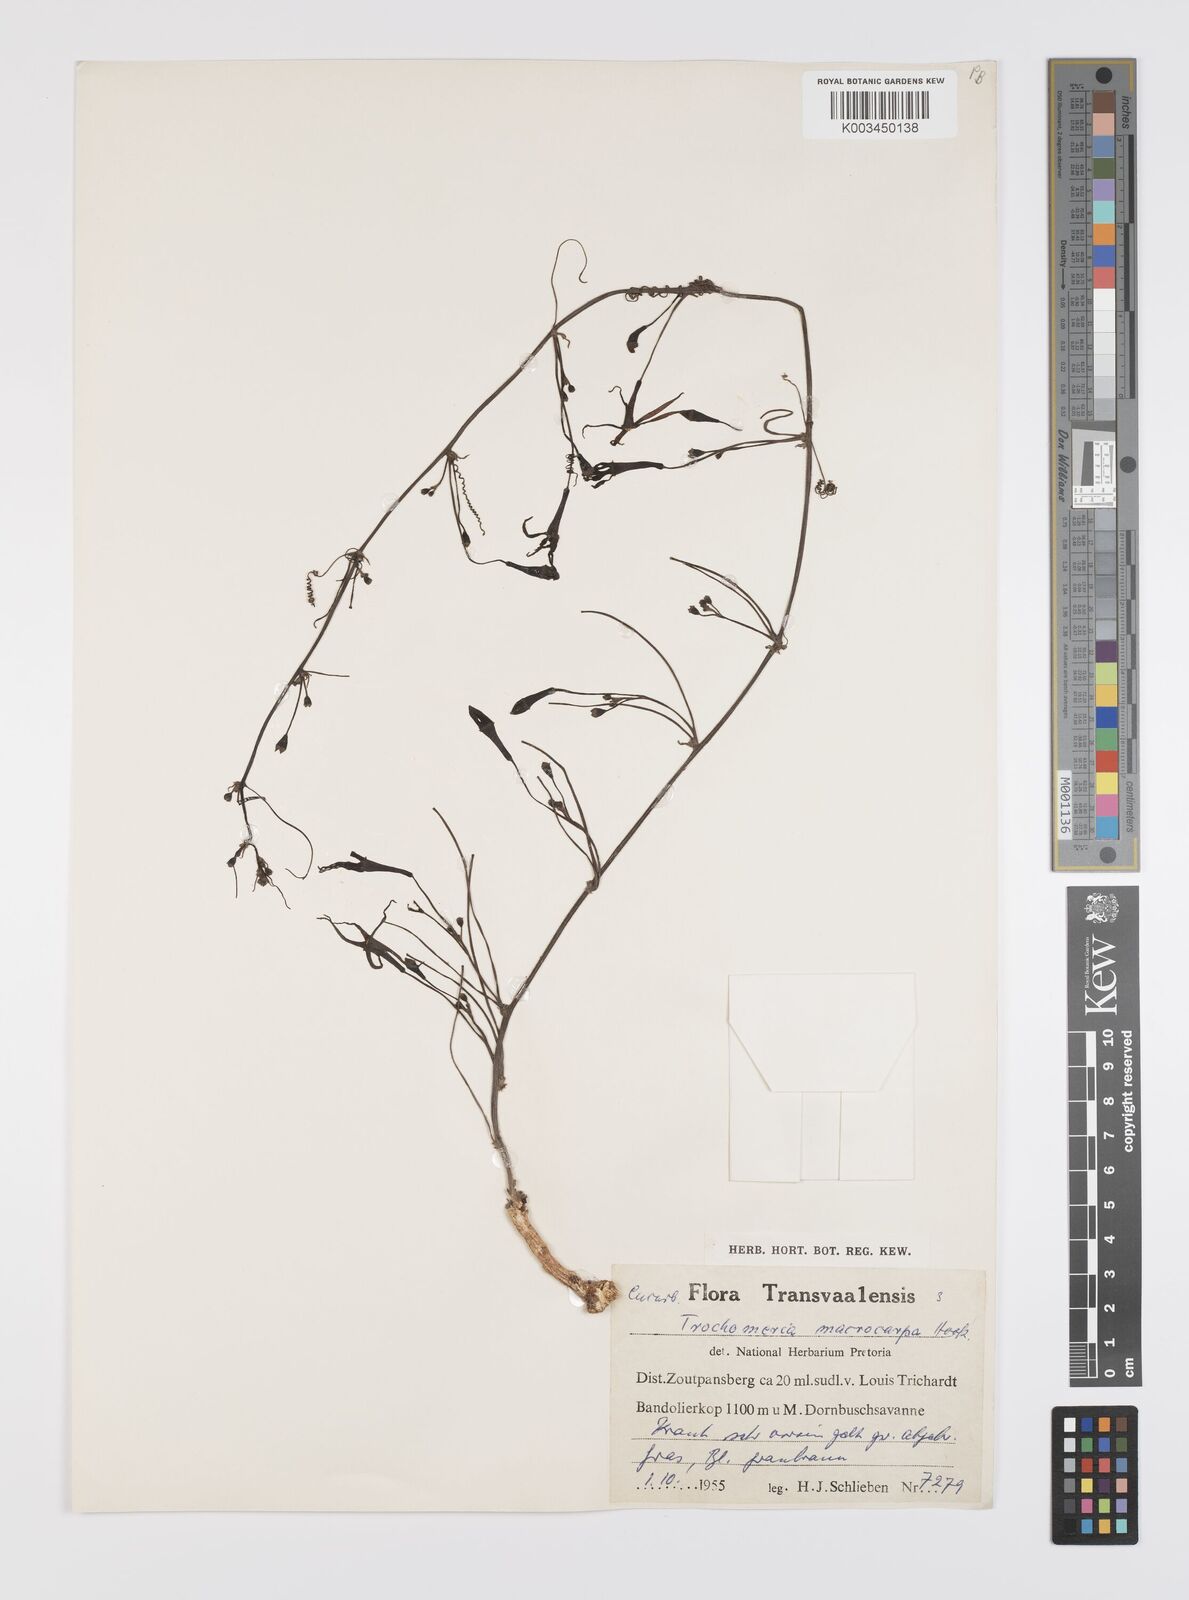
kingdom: Plantae
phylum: Tracheophyta
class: Magnoliopsida
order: Cucurbitales
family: Cucurbitaceae
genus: Trochomeria
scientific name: Trochomeria macrocarpa
